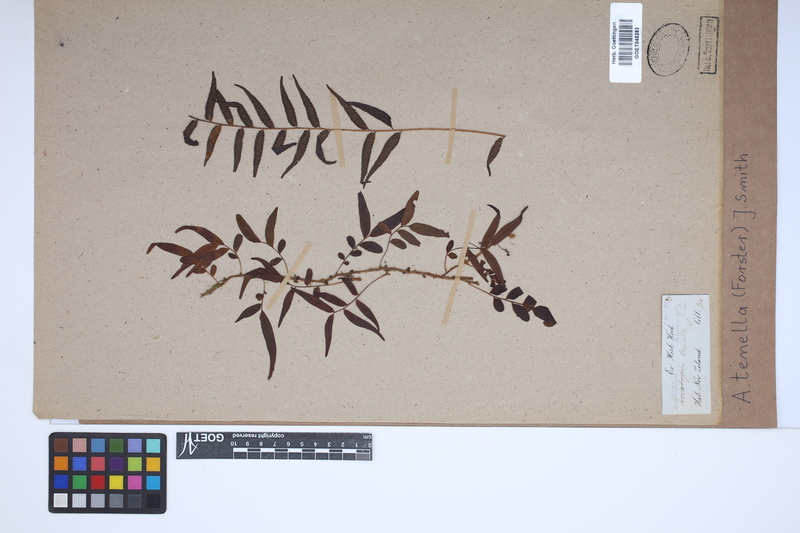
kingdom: Plantae
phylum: Tracheophyta
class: Polypodiopsida
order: Polypodiales
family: Tectariaceae
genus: Arthropteris
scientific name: Arthropteris tenella
